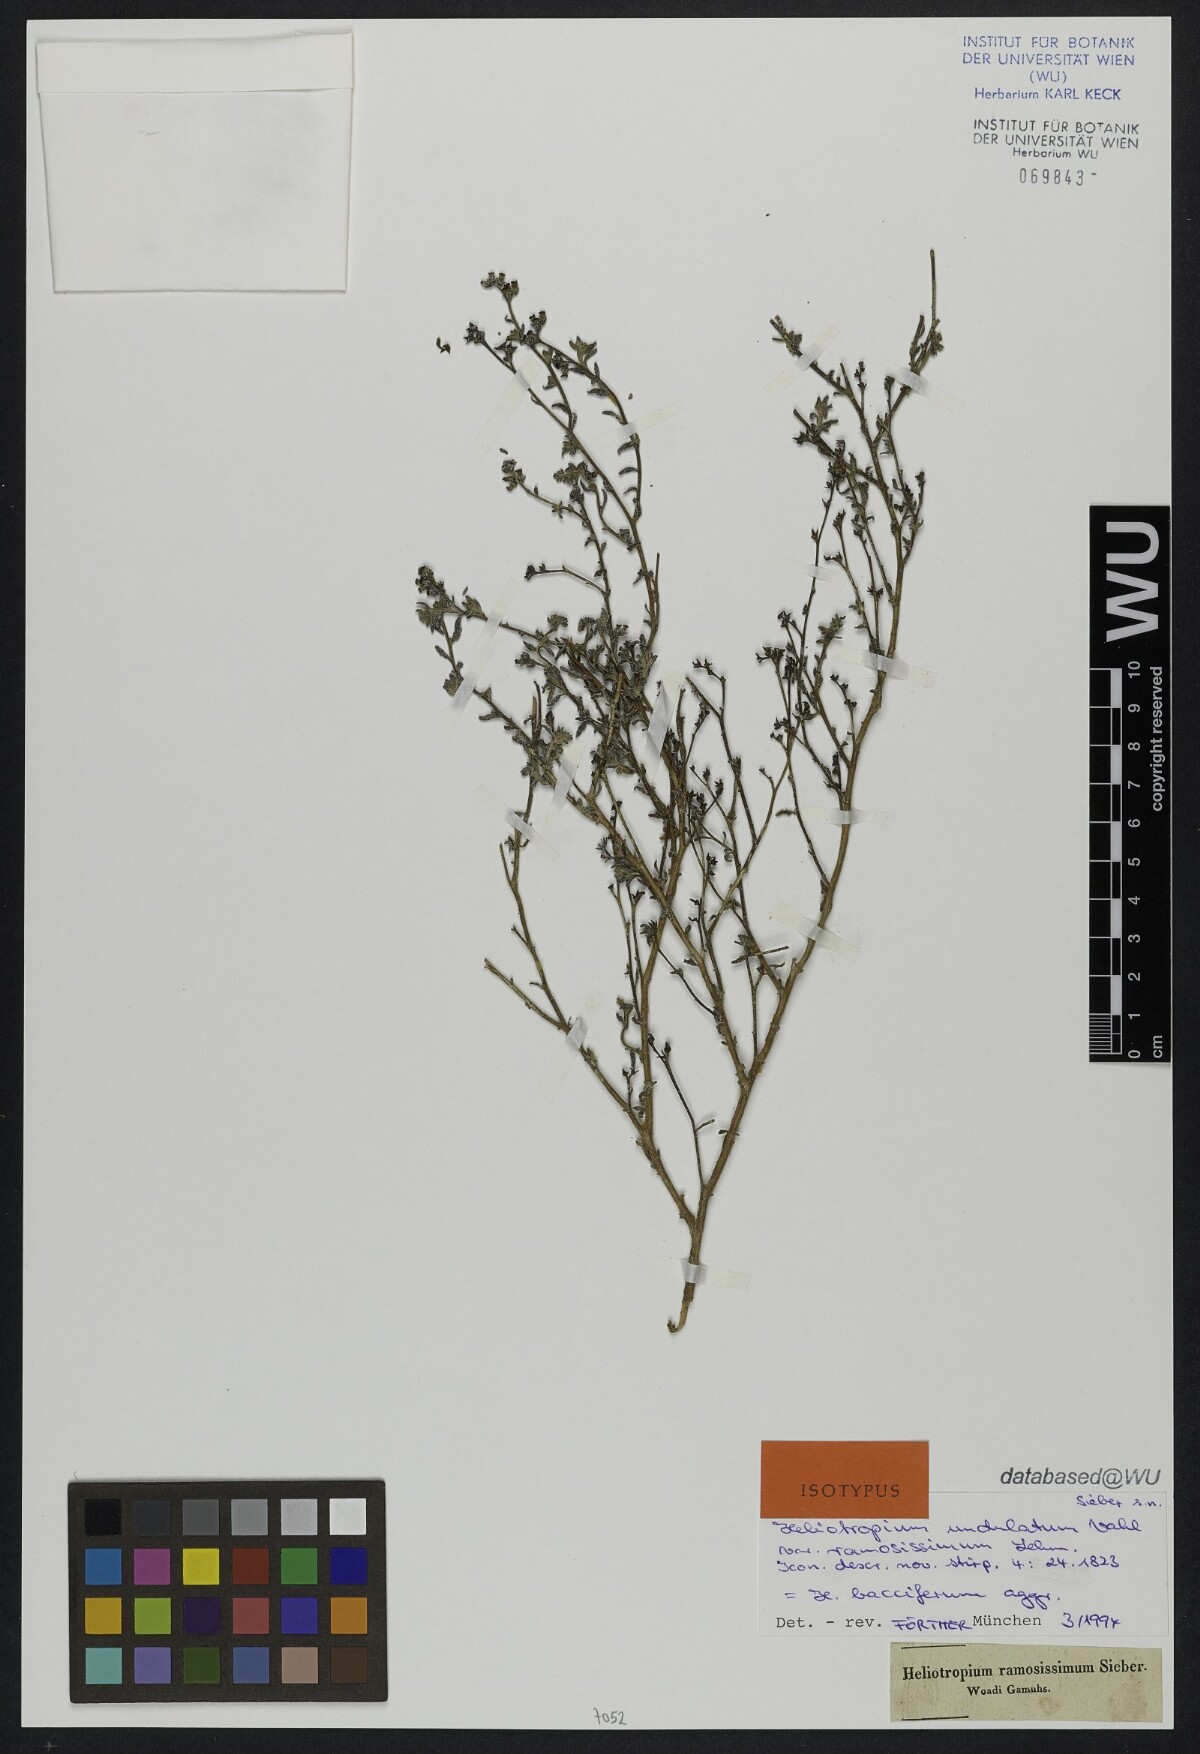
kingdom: Plantae
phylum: Tracheophyta
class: Magnoliopsida
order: Boraginales
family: Heliotropiaceae
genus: Heliotropium
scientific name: Heliotropium ramosissimum
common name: Wavy heliotrope
